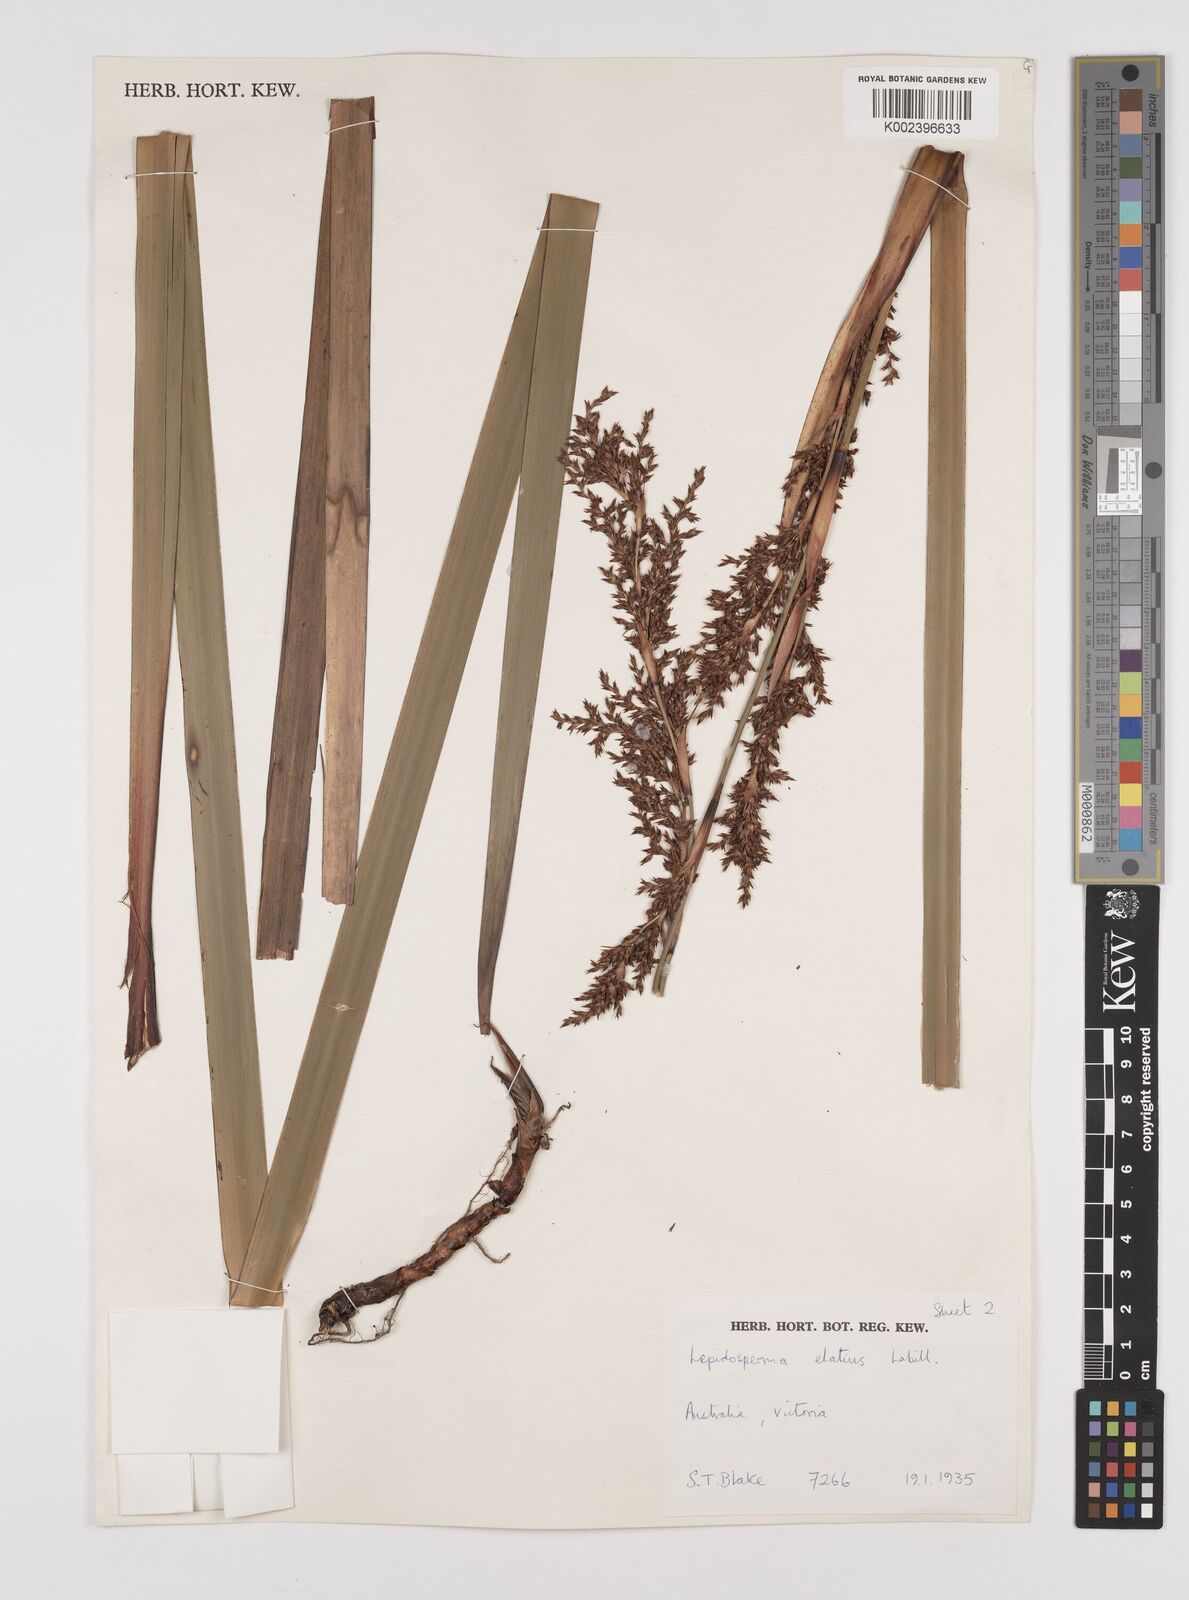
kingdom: Plantae
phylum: Tracheophyta
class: Liliopsida
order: Poales
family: Cyperaceae
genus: Lepidosperma
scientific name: Lepidosperma elatius
